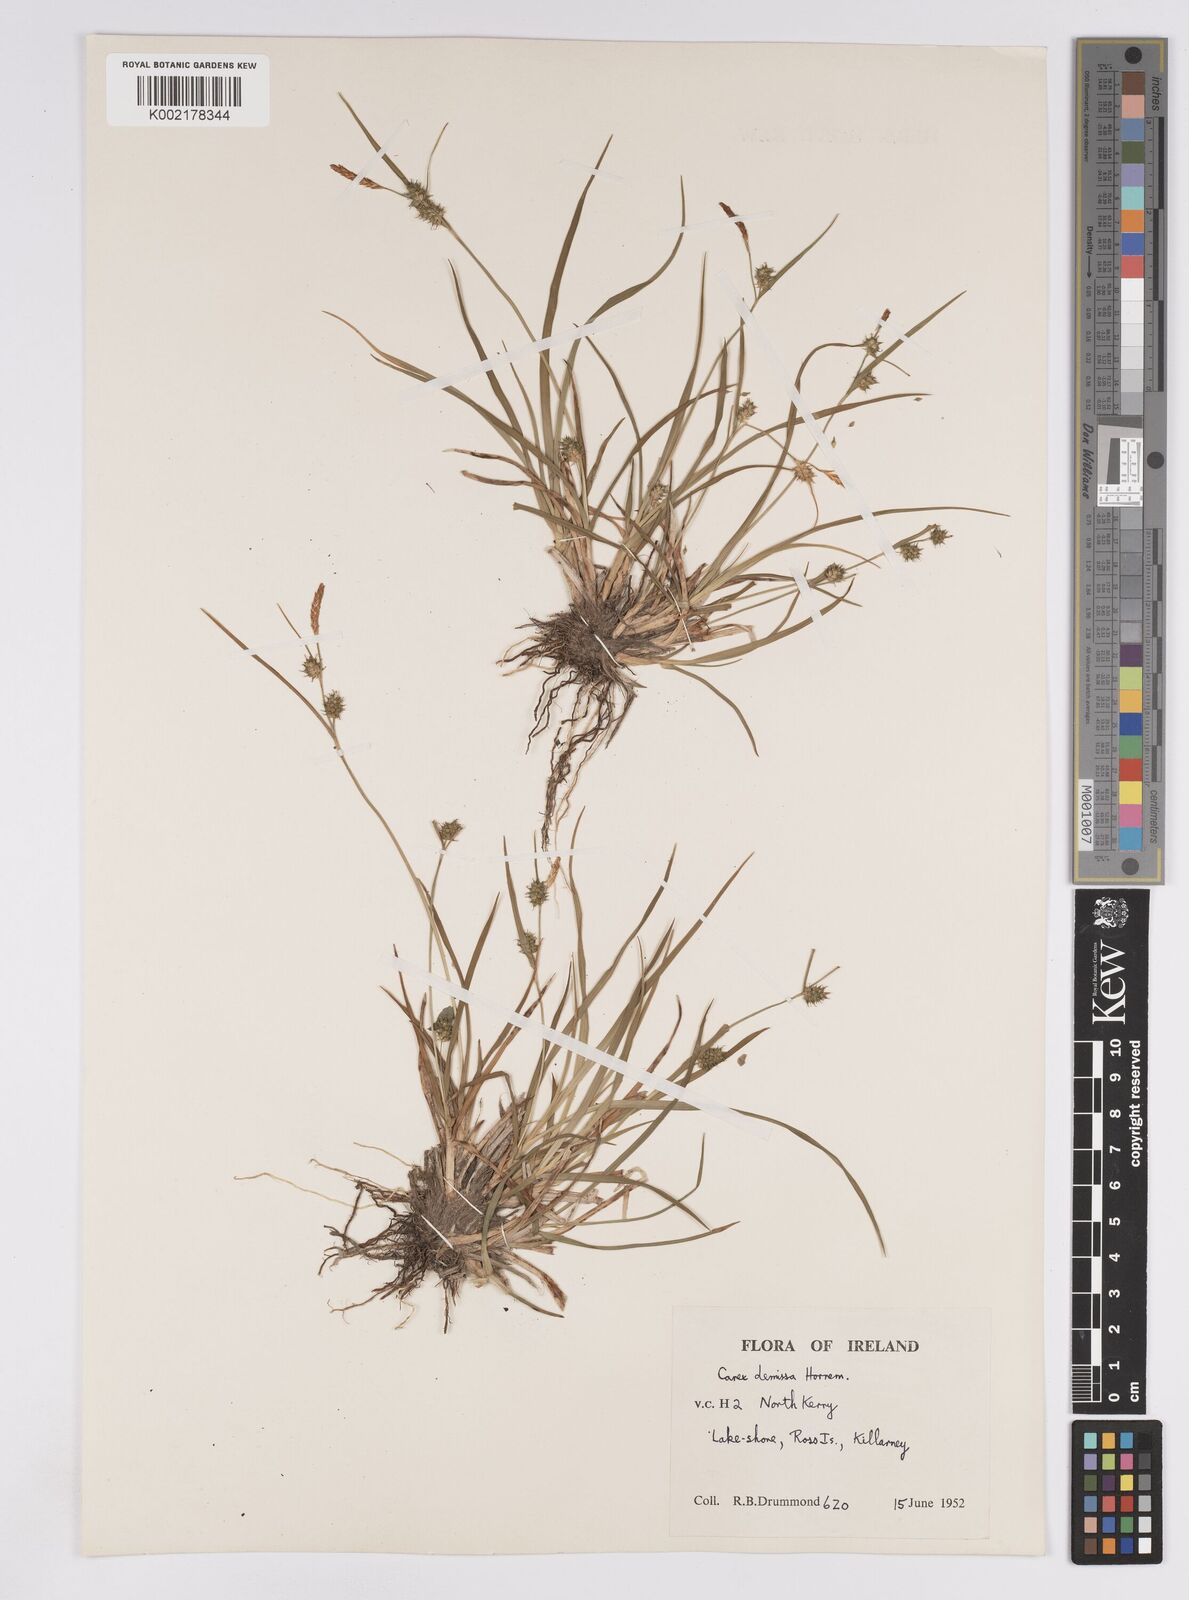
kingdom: Plantae
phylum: Tracheophyta
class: Liliopsida
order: Poales
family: Cyperaceae
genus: Carex
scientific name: Carex demissa
